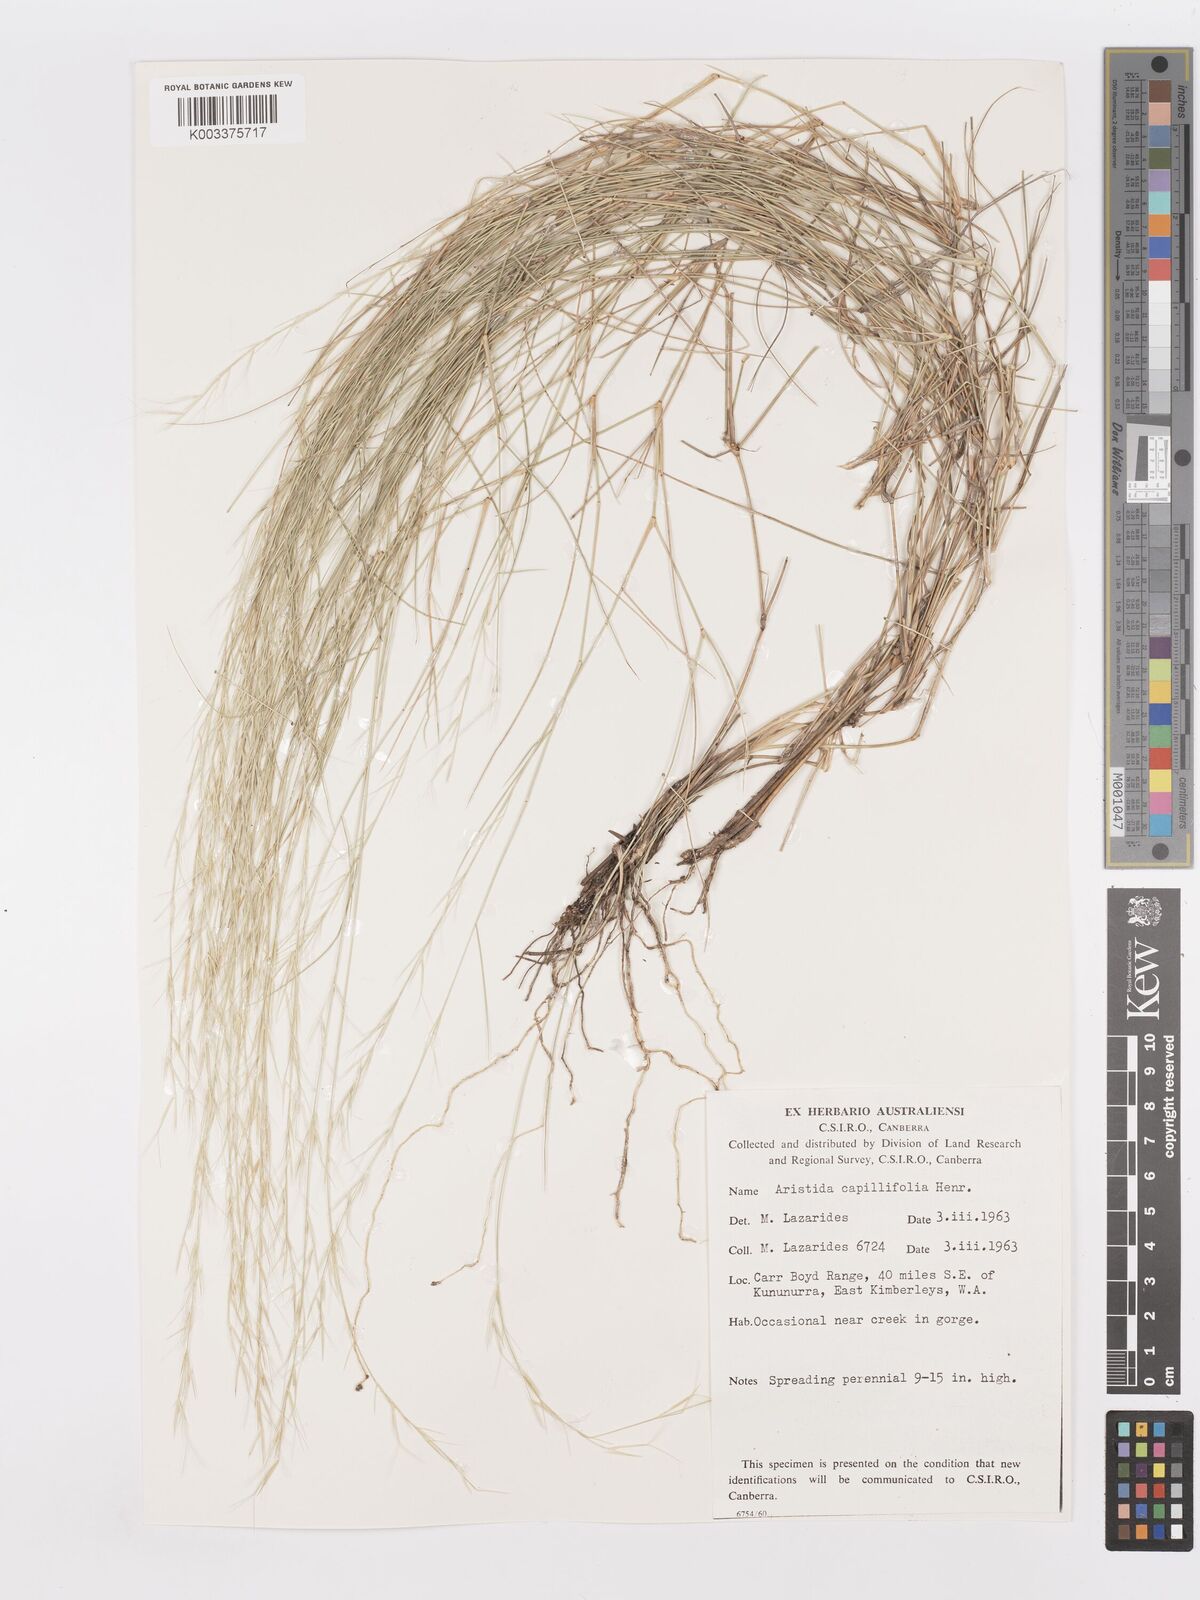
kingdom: Plantae
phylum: Tracheophyta
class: Liliopsida
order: Poales
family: Poaceae
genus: Aristida
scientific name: Aristida capillifolia
